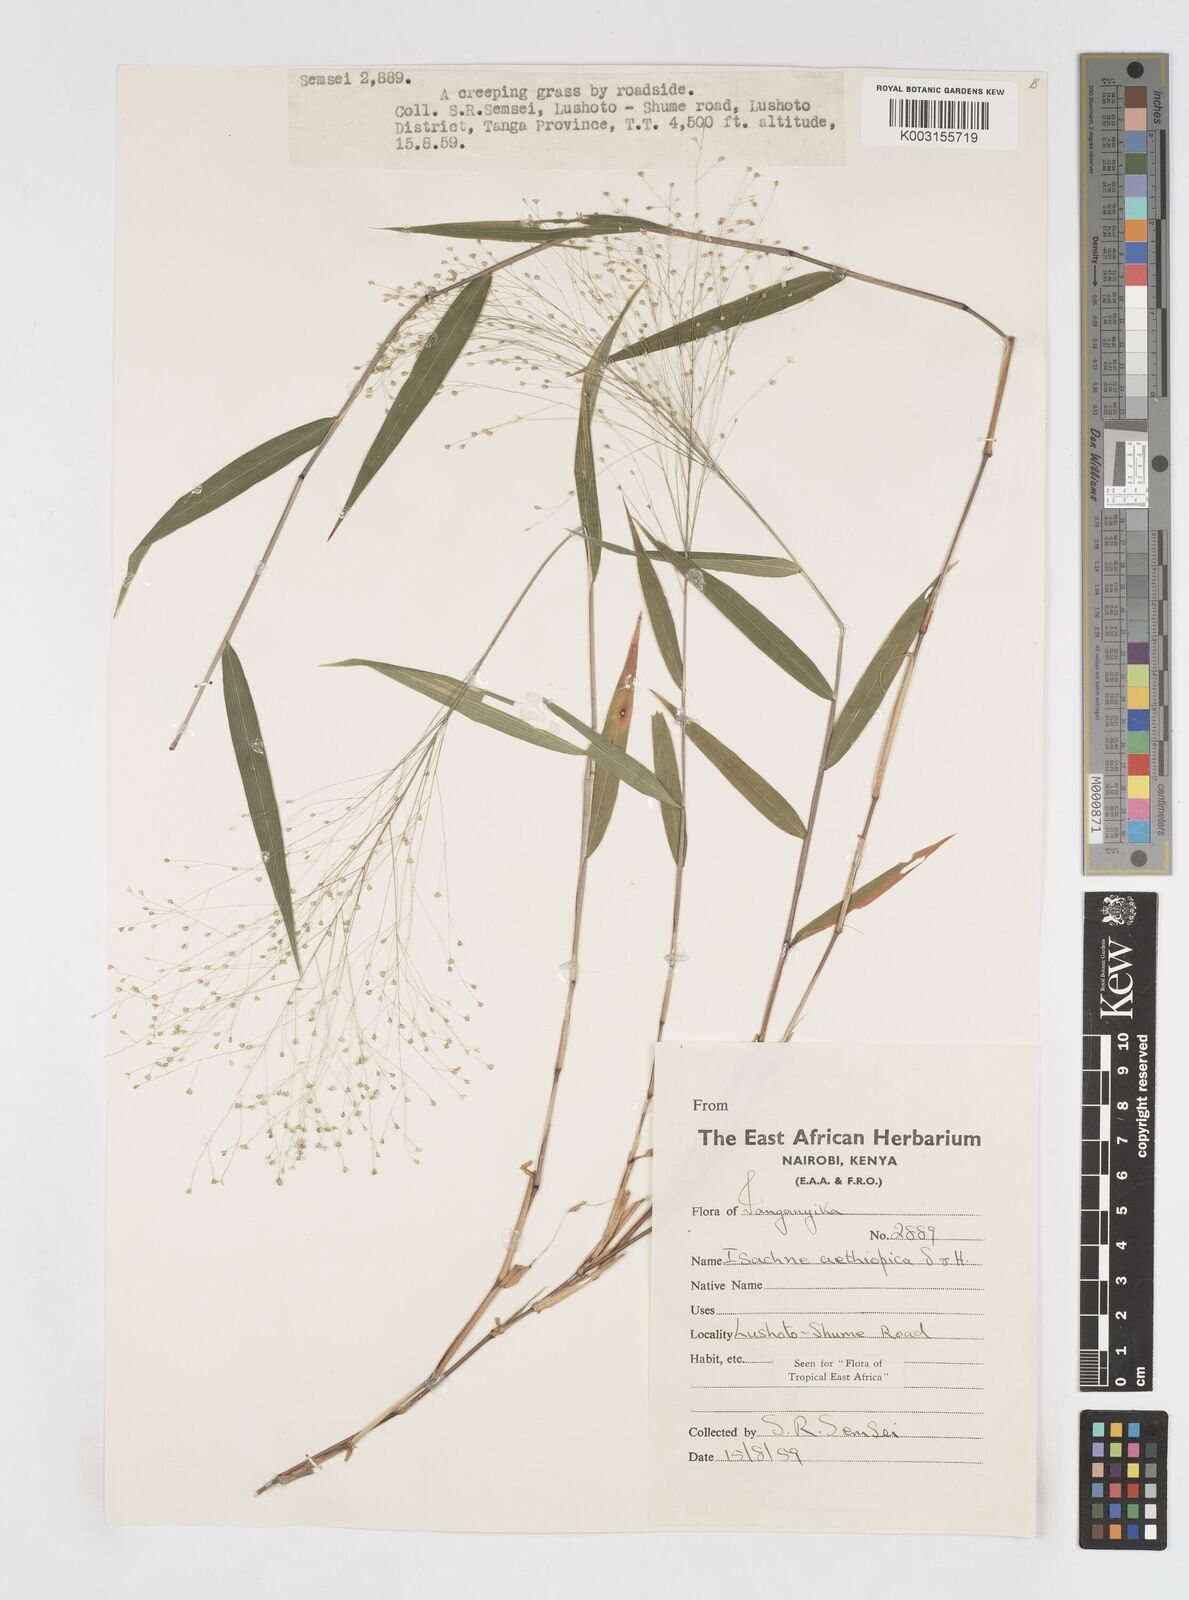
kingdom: Plantae
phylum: Tracheophyta
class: Liliopsida
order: Poales
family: Poaceae
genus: Isachne
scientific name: Isachne mauritiana
